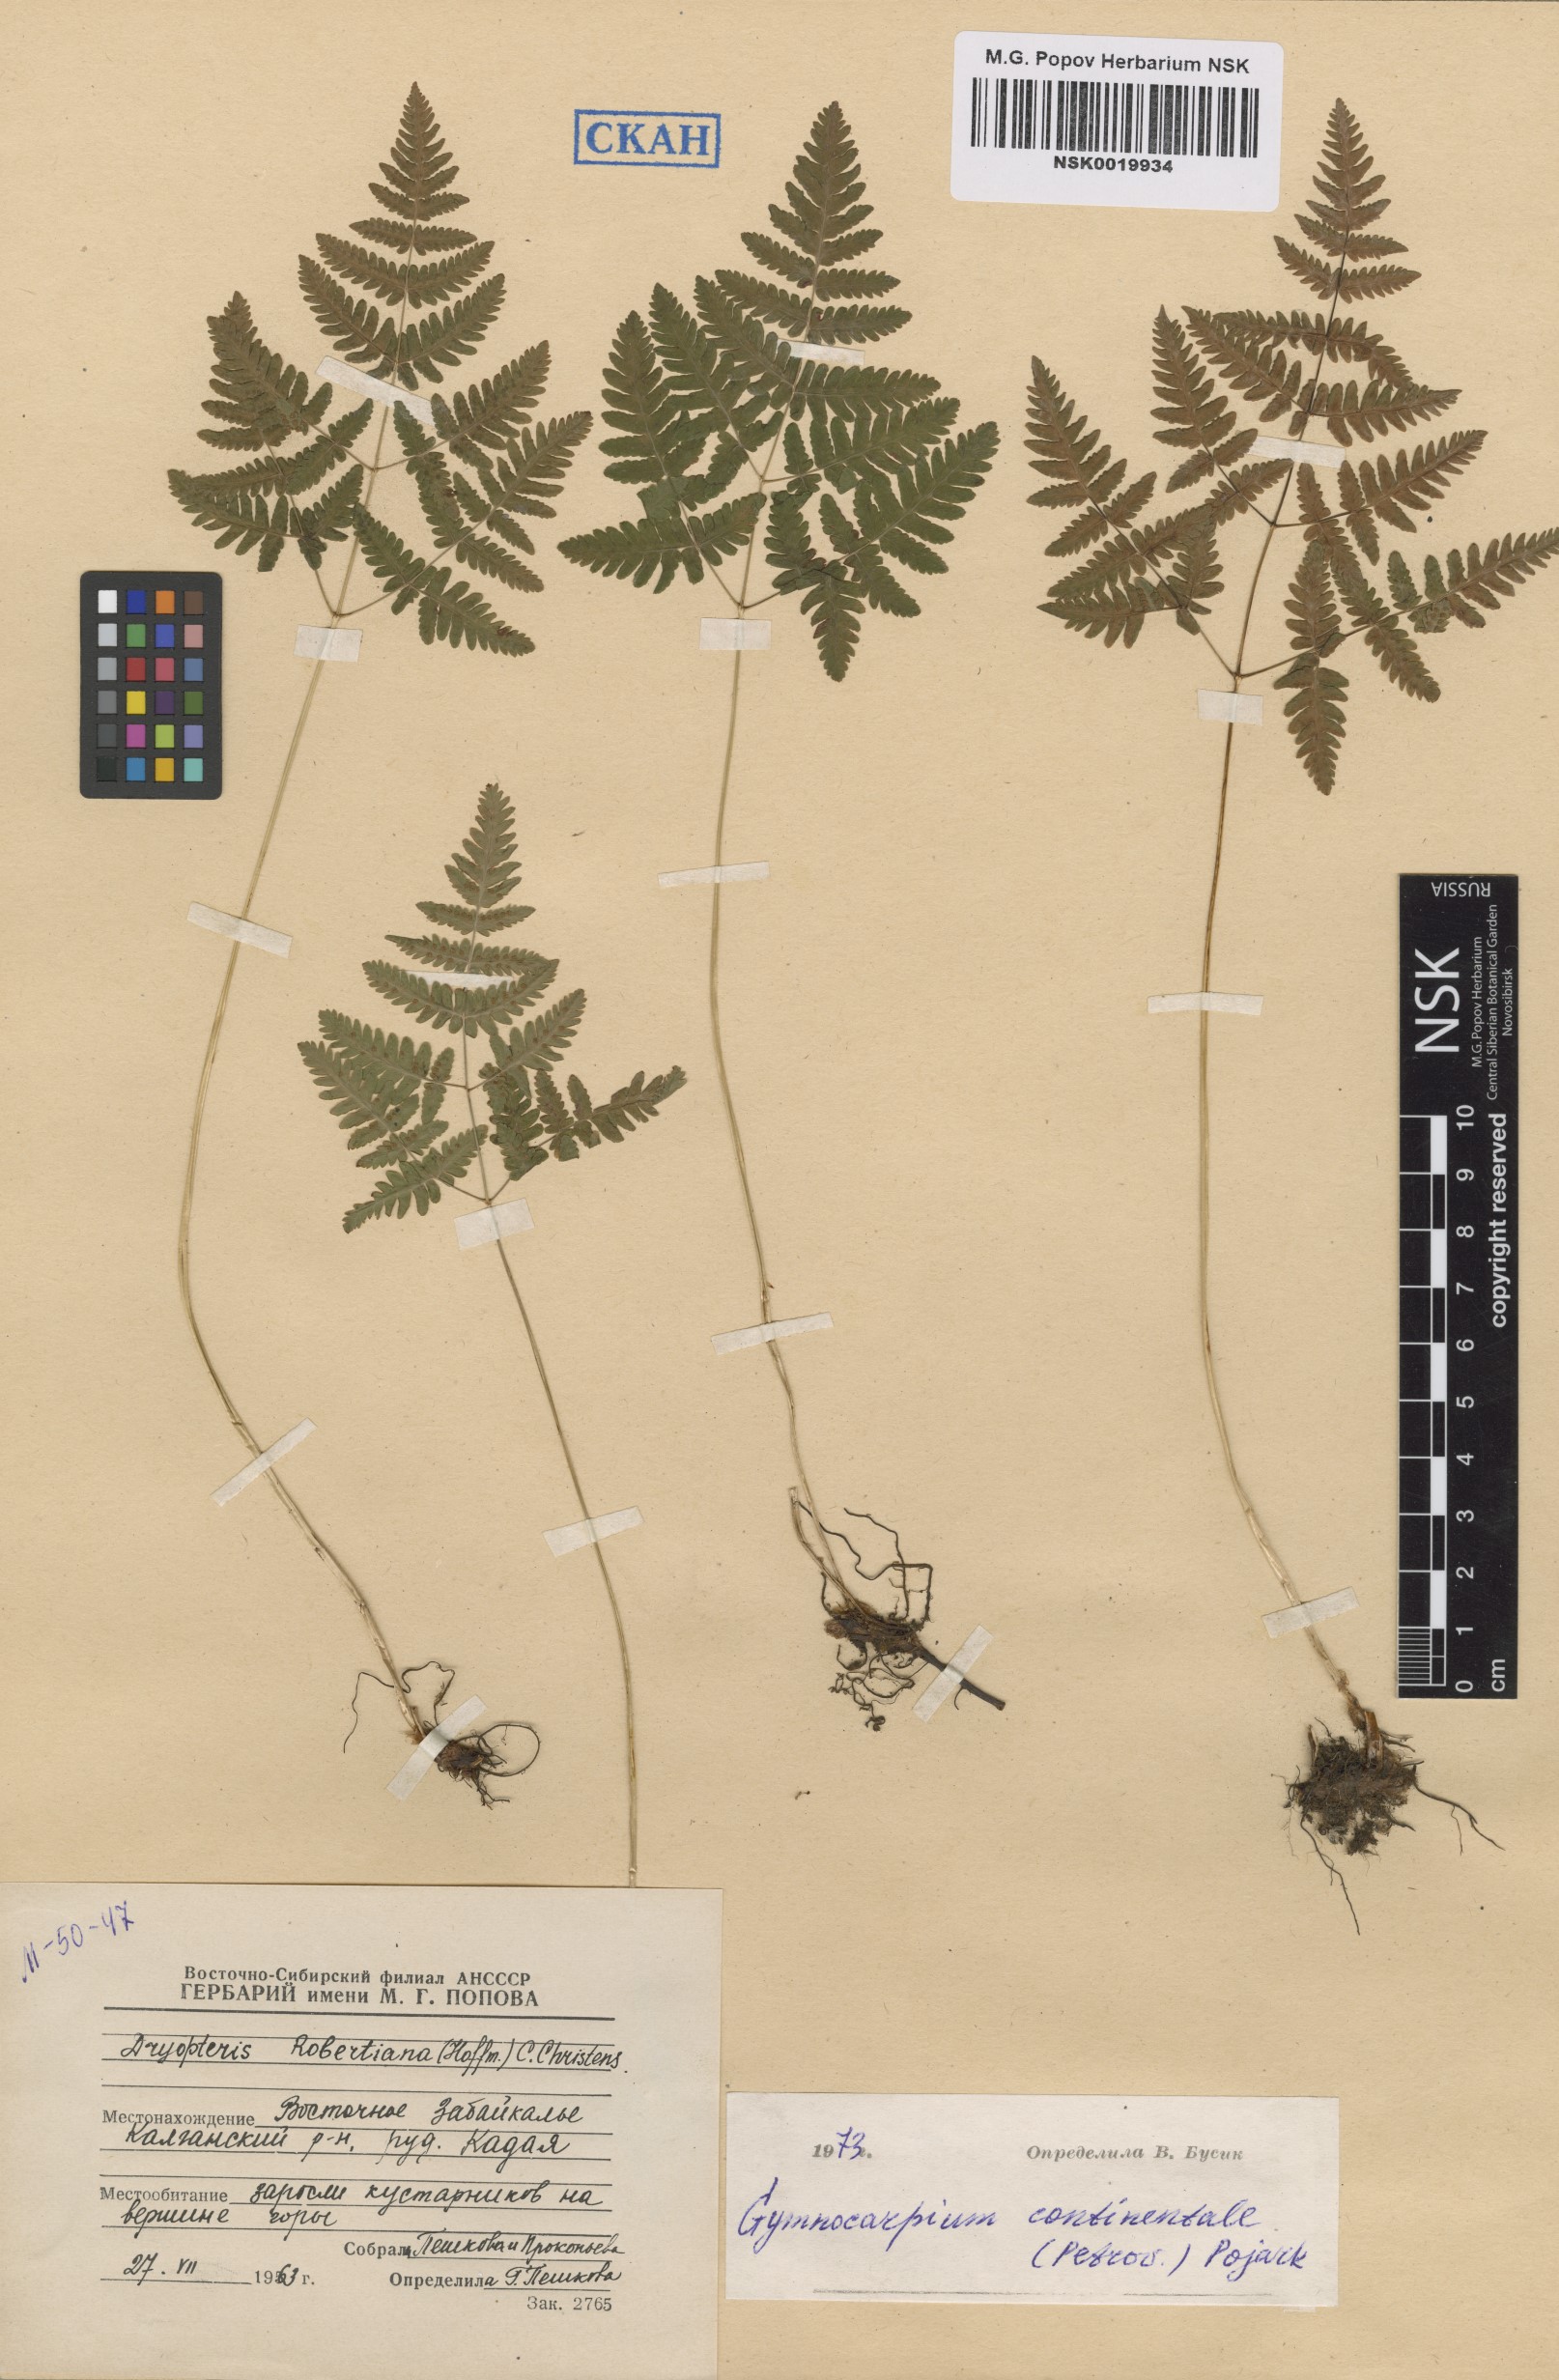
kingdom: Plantae
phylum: Tracheophyta
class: Polypodiopsida
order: Polypodiales
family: Cystopteridaceae
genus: Gymnocarpium
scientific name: Gymnocarpium continentale
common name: Asian oak fern
